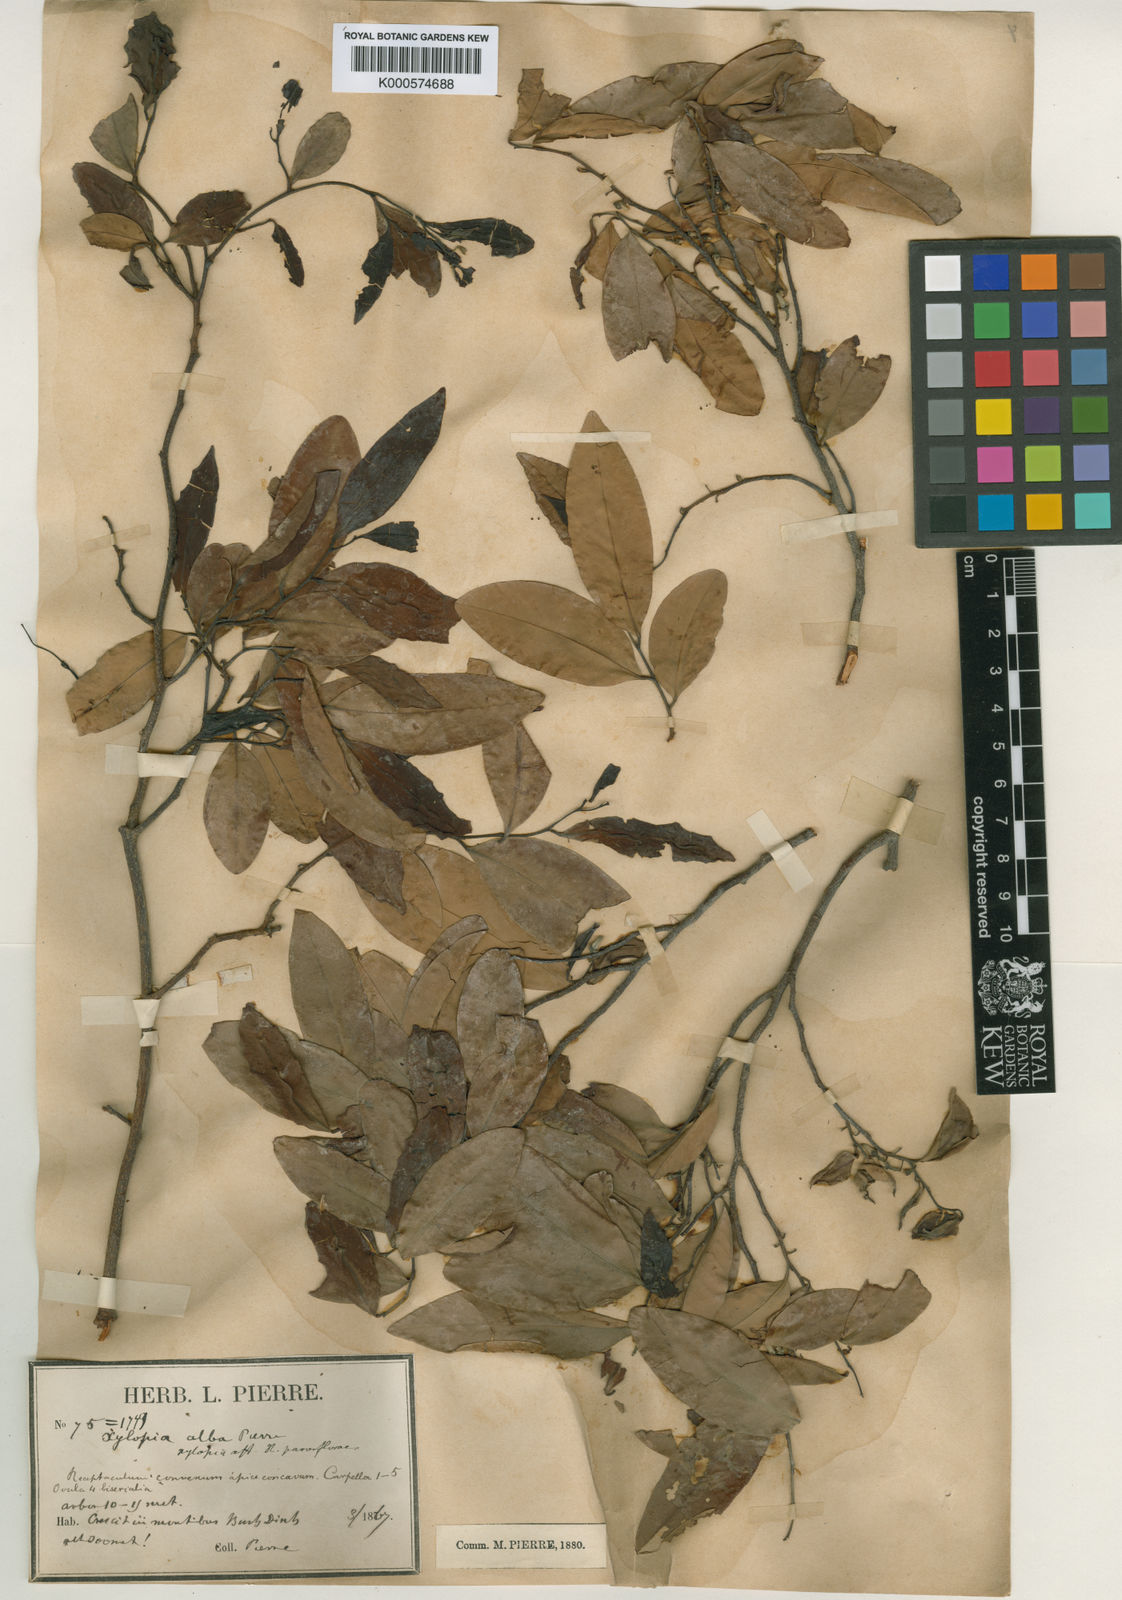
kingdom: Plantae
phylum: Tracheophyta
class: Magnoliopsida
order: Magnoliales
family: Annonaceae
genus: Xylopia
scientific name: Xylopia pierrei
